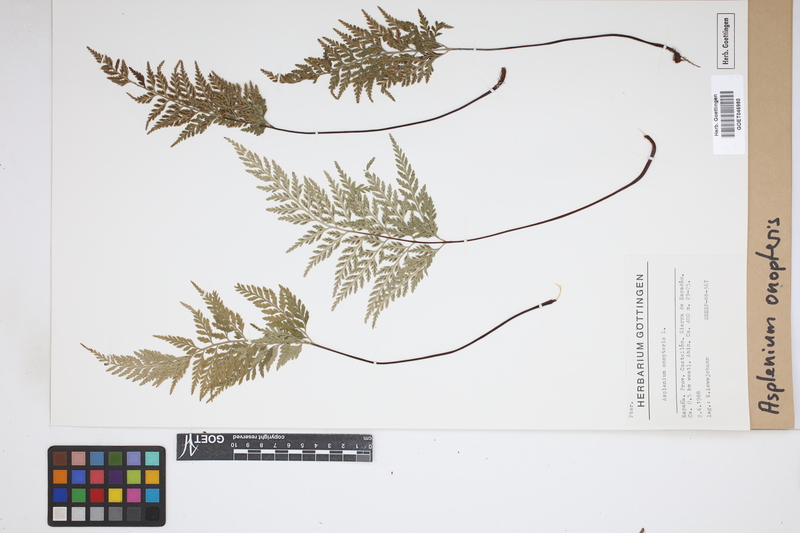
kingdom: Plantae
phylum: Tracheophyta
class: Polypodiopsida
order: Polypodiales
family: Aspleniaceae
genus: Asplenium
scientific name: Asplenium onopteris
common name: Irish spleenwort
